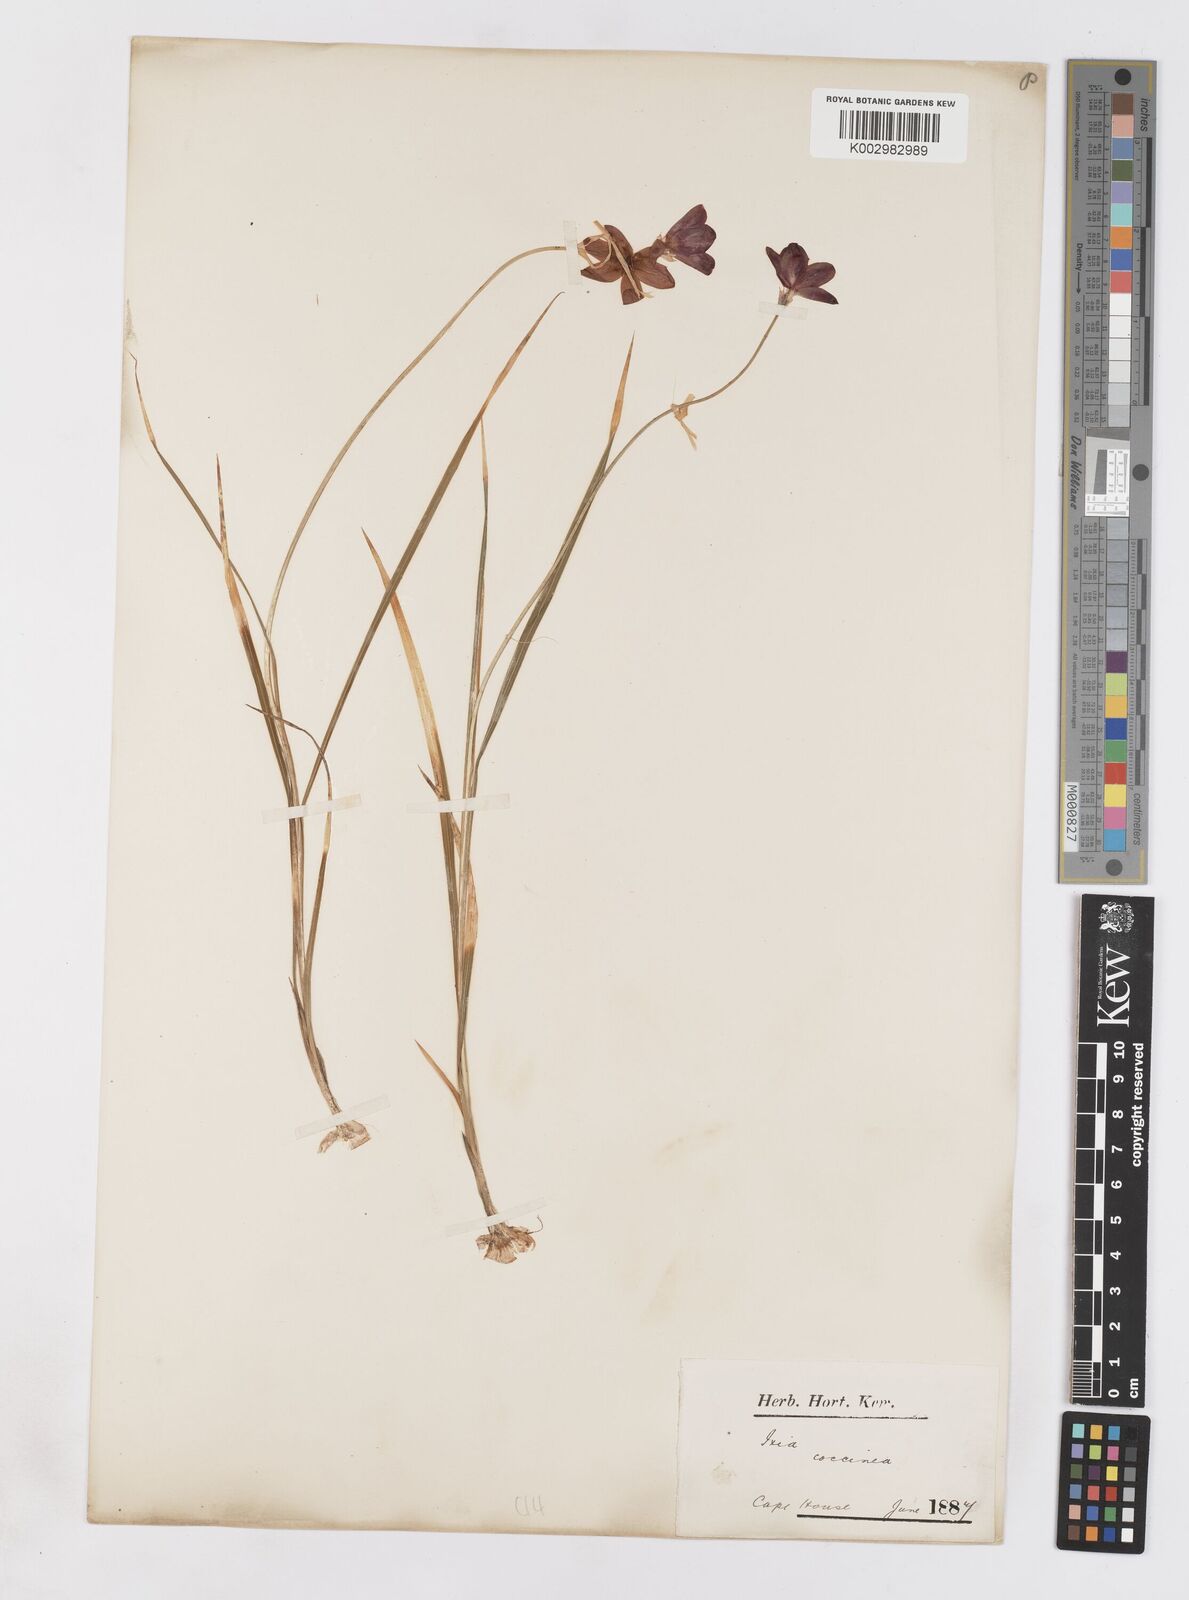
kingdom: Plantae
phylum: Tracheophyta
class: Liliopsida
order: Asparagales
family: Iridaceae
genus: Ixia
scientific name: Ixia campanulata
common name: Red corn-lily
